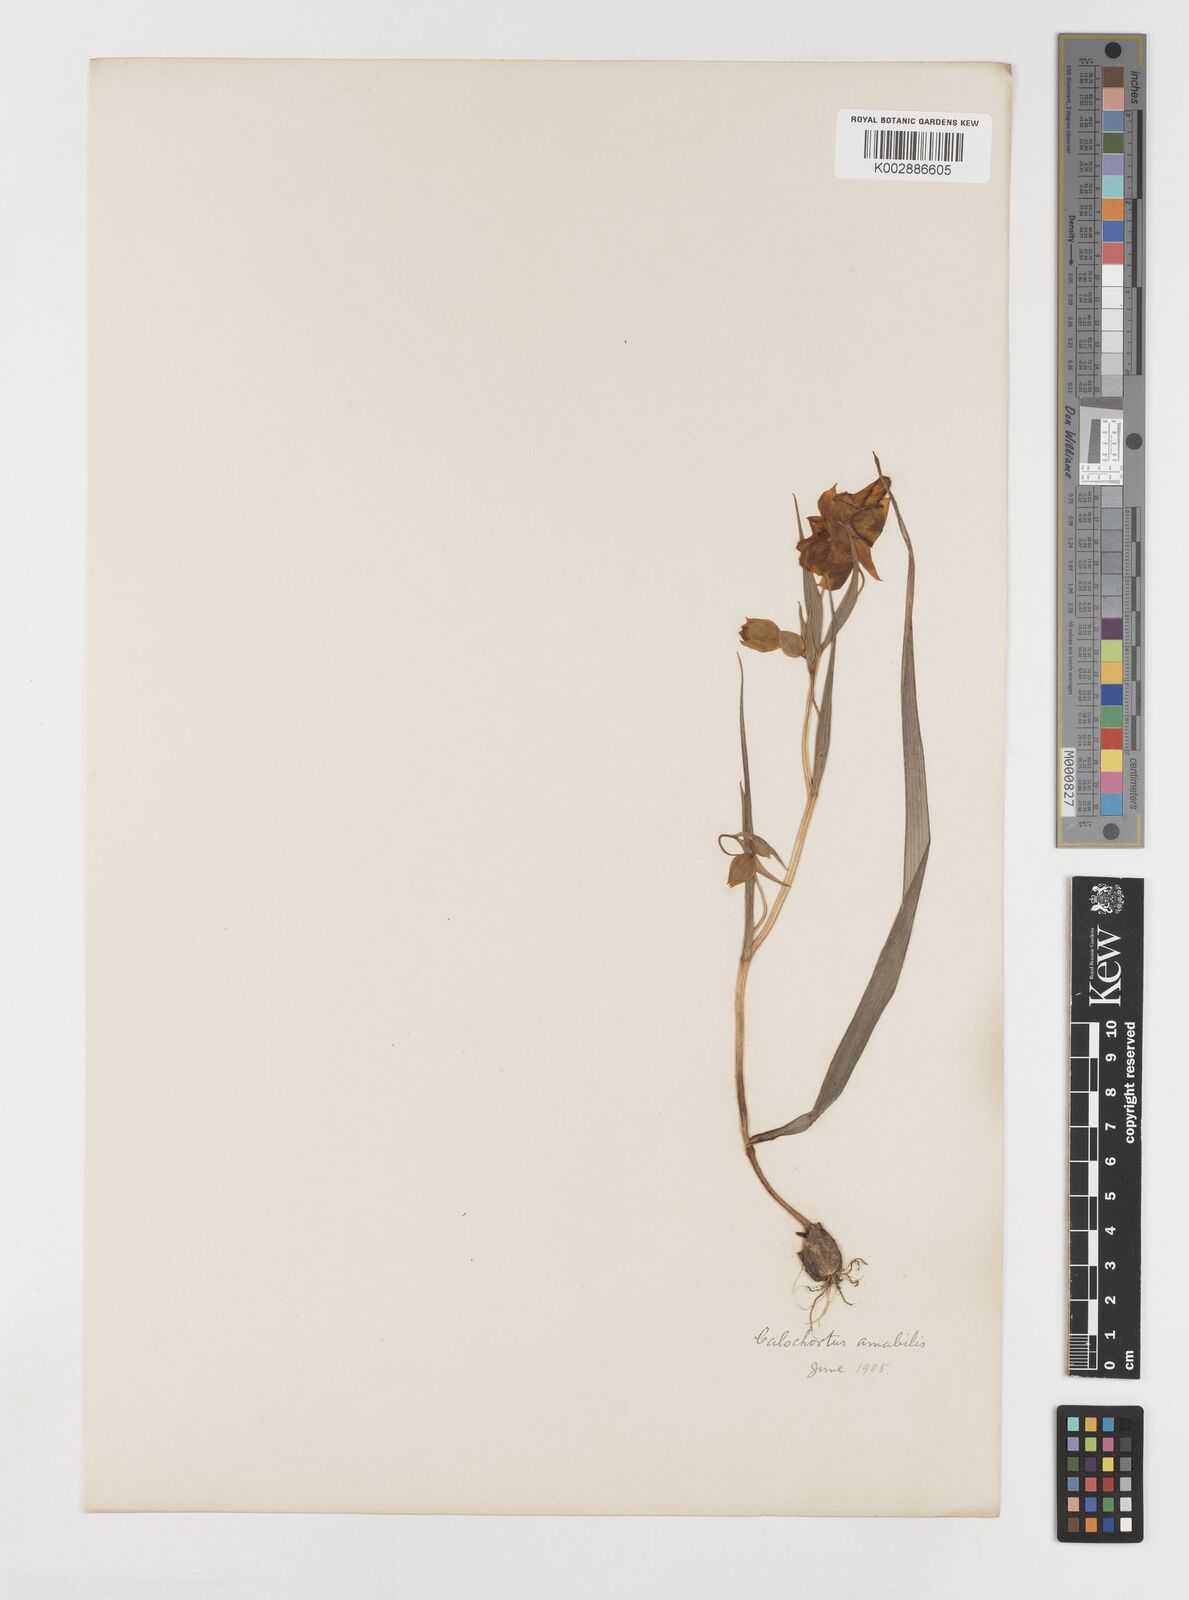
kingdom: Plantae
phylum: Tracheophyta
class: Liliopsida
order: Liliales
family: Liliaceae
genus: Calochortus
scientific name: Calochortus amabilis
